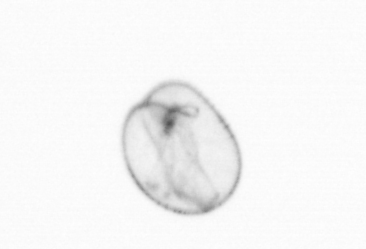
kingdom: Chromista
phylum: Myzozoa
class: Dinophyceae
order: Noctilucales
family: Noctilucaceae
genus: Noctiluca
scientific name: Noctiluca scintillans
